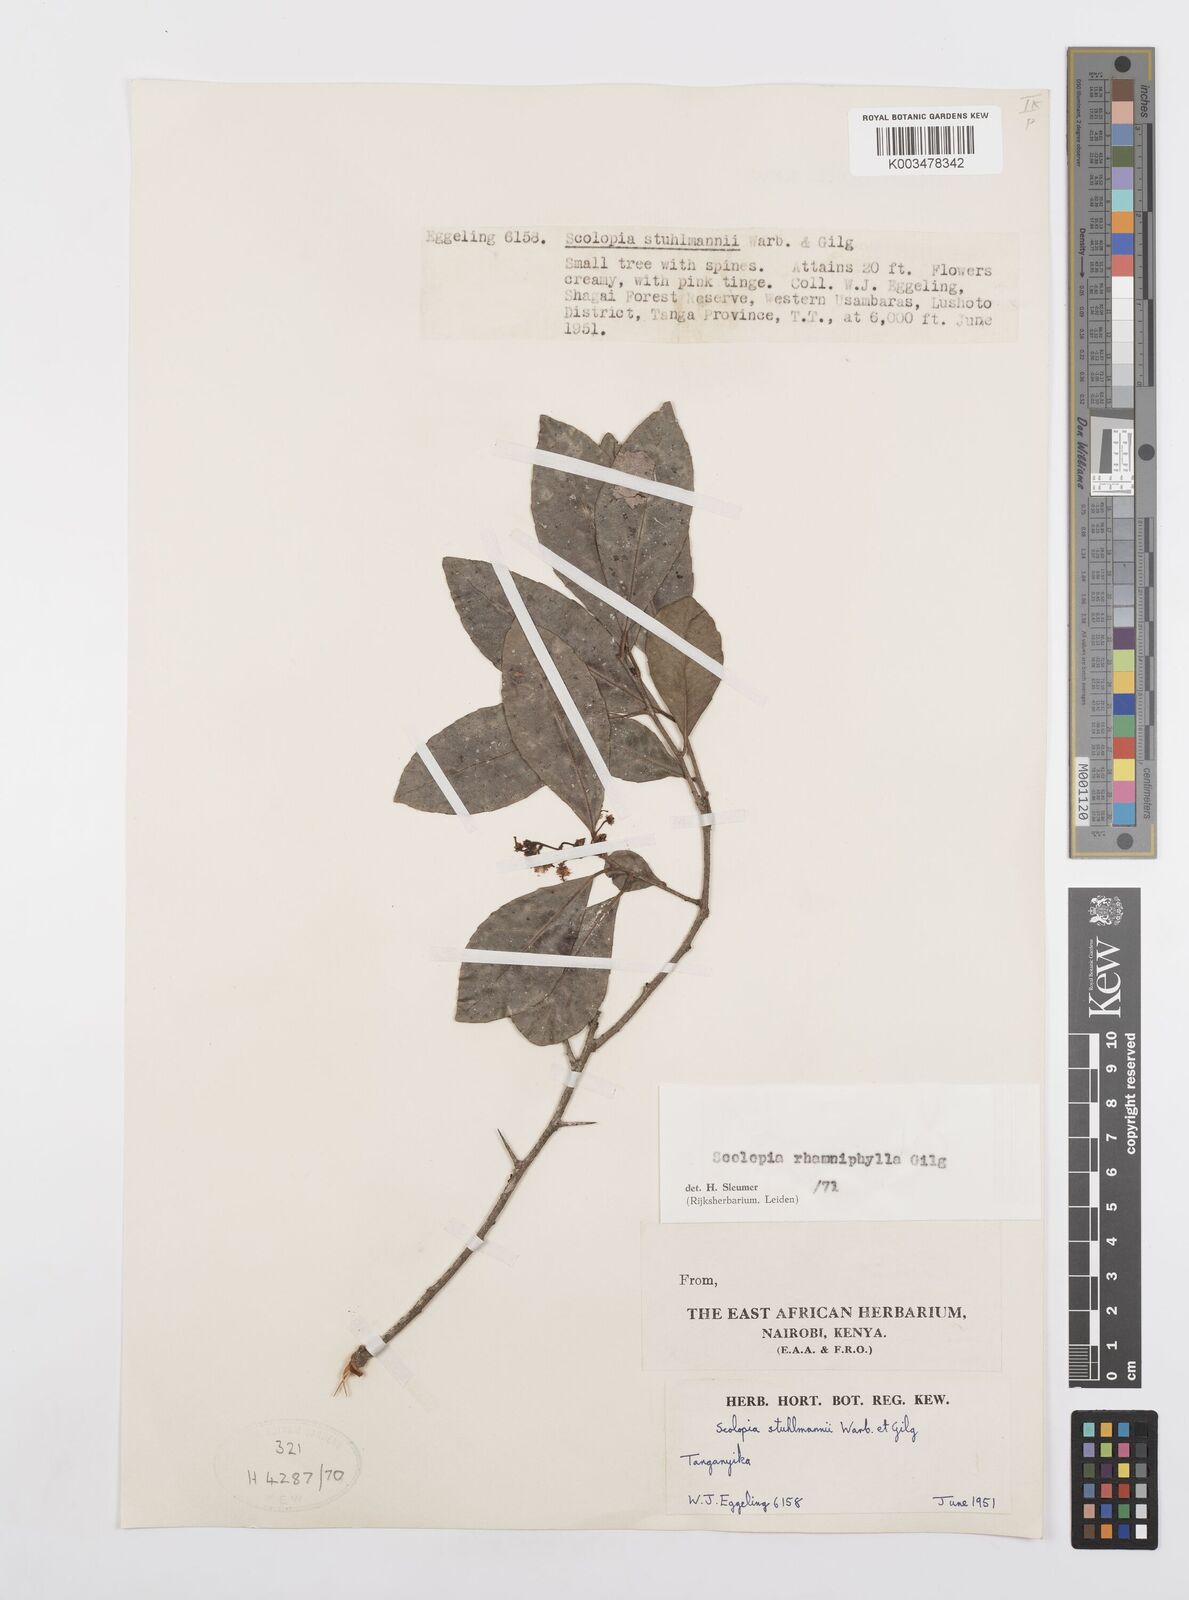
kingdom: Plantae
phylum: Tracheophyta
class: Magnoliopsida
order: Malpighiales
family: Salicaceae
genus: Scolopia
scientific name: Scolopia rhamniphylla
